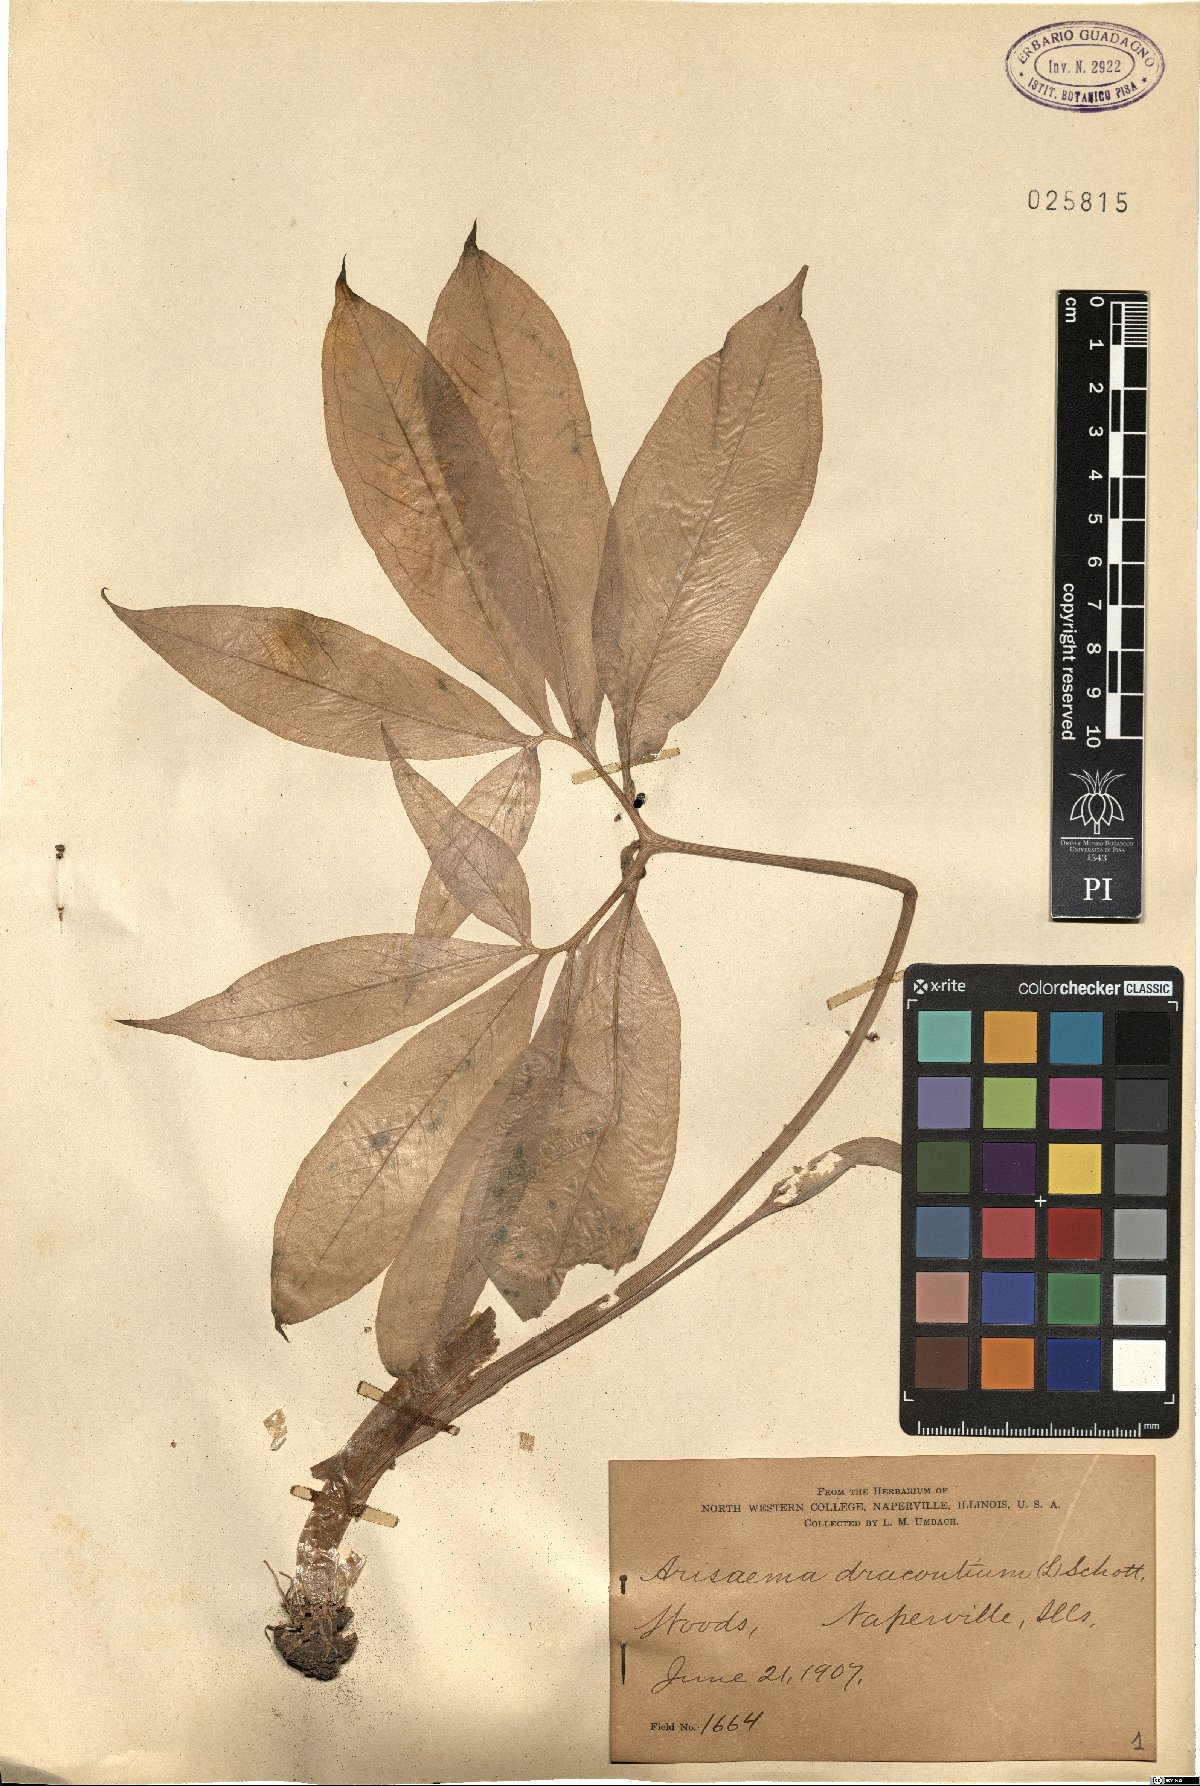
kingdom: Plantae
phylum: Tracheophyta
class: Liliopsida
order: Alismatales
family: Araceae
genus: Arisaema
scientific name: Arisaema dracontium
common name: Dragon-arum
